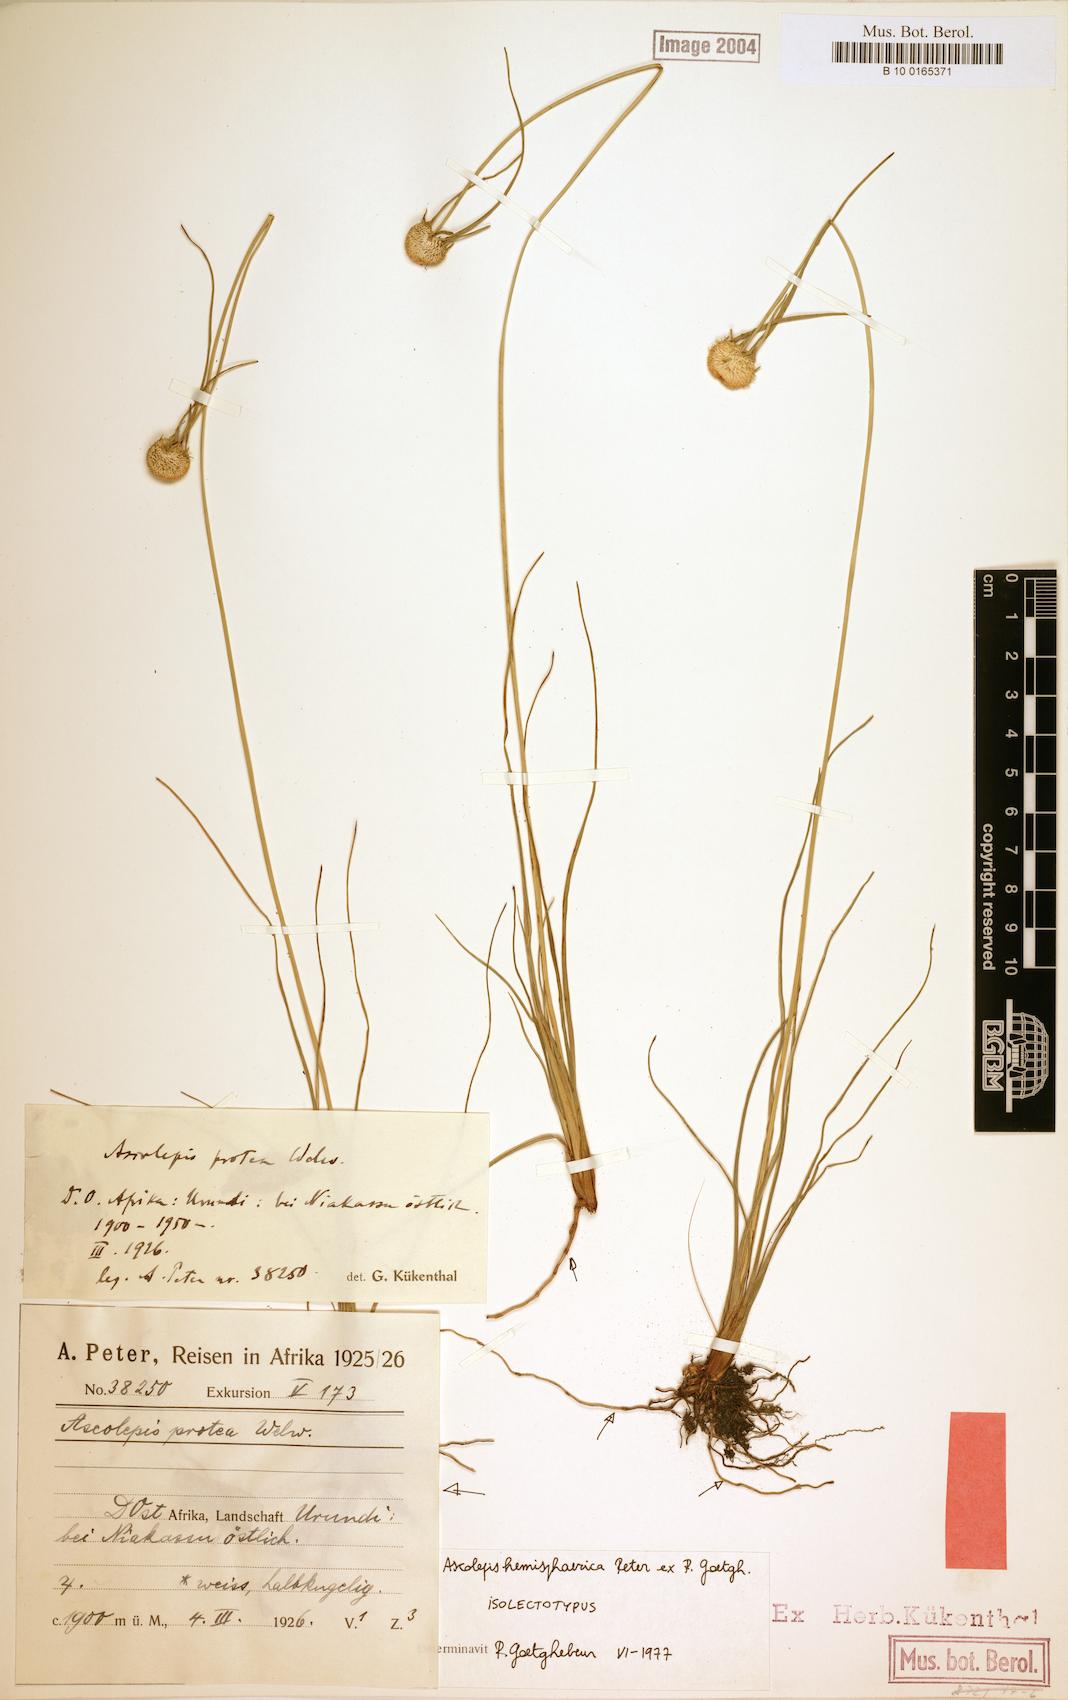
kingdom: Plantae
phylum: Tracheophyta
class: Liliopsida
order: Poales
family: Cyperaceae
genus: Cyperus
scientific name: Cyperus ascohemisphaericus
